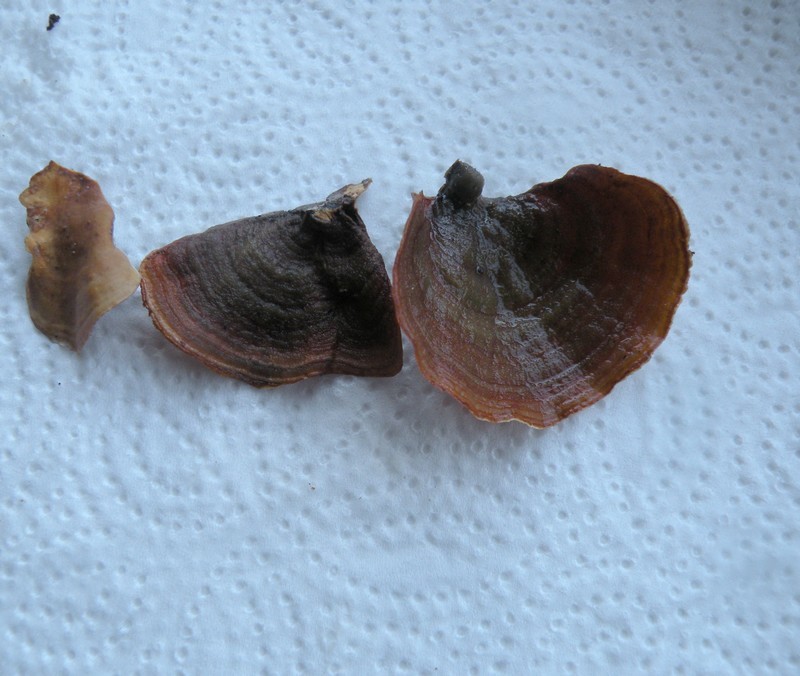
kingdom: Fungi
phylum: Basidiomycota
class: Agaricomycetes
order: Russulales
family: Stereaceae
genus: Stereum
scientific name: Stereum subtomentosum
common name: smuk lædersvamp
